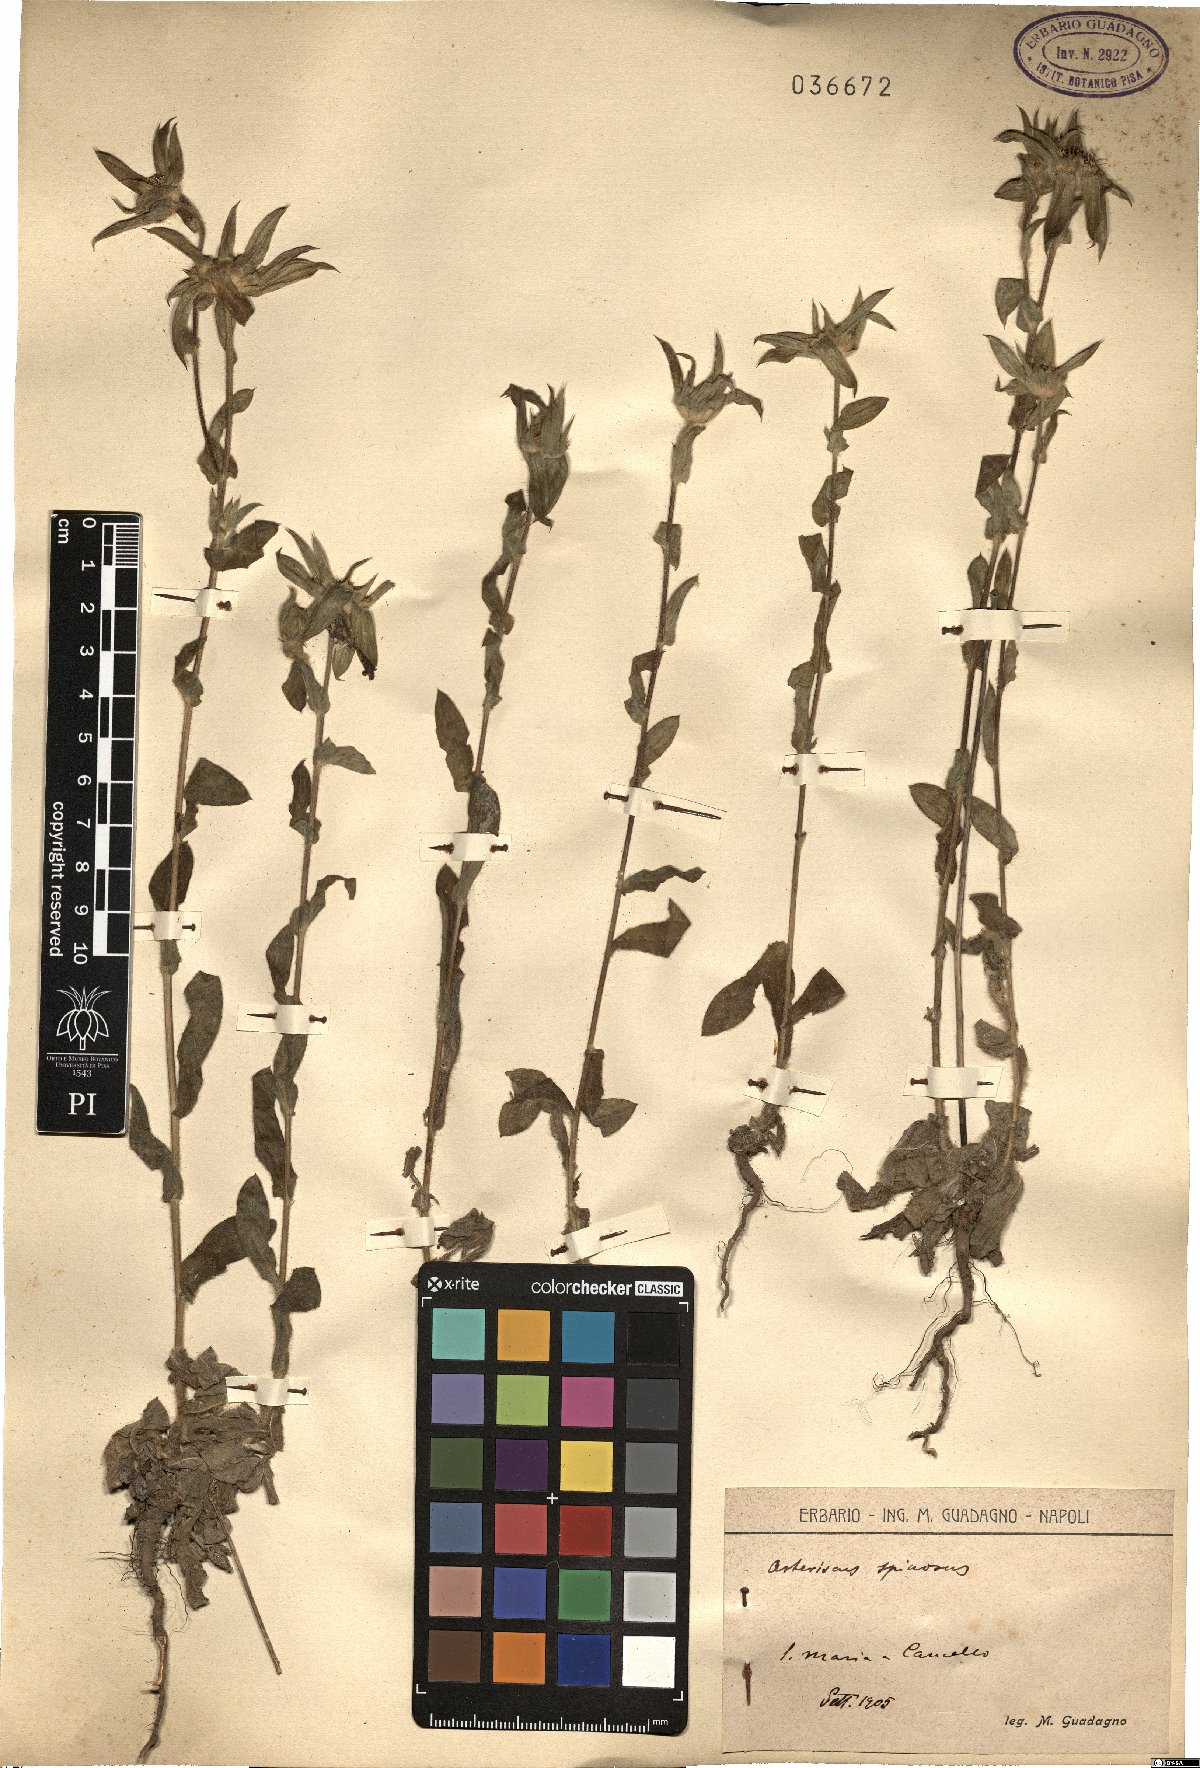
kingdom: Plantae
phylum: Tracheophyta
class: Magnoliopsida
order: Asterales
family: Asteraceae
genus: Pallenis
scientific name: Pallenis spinosa
